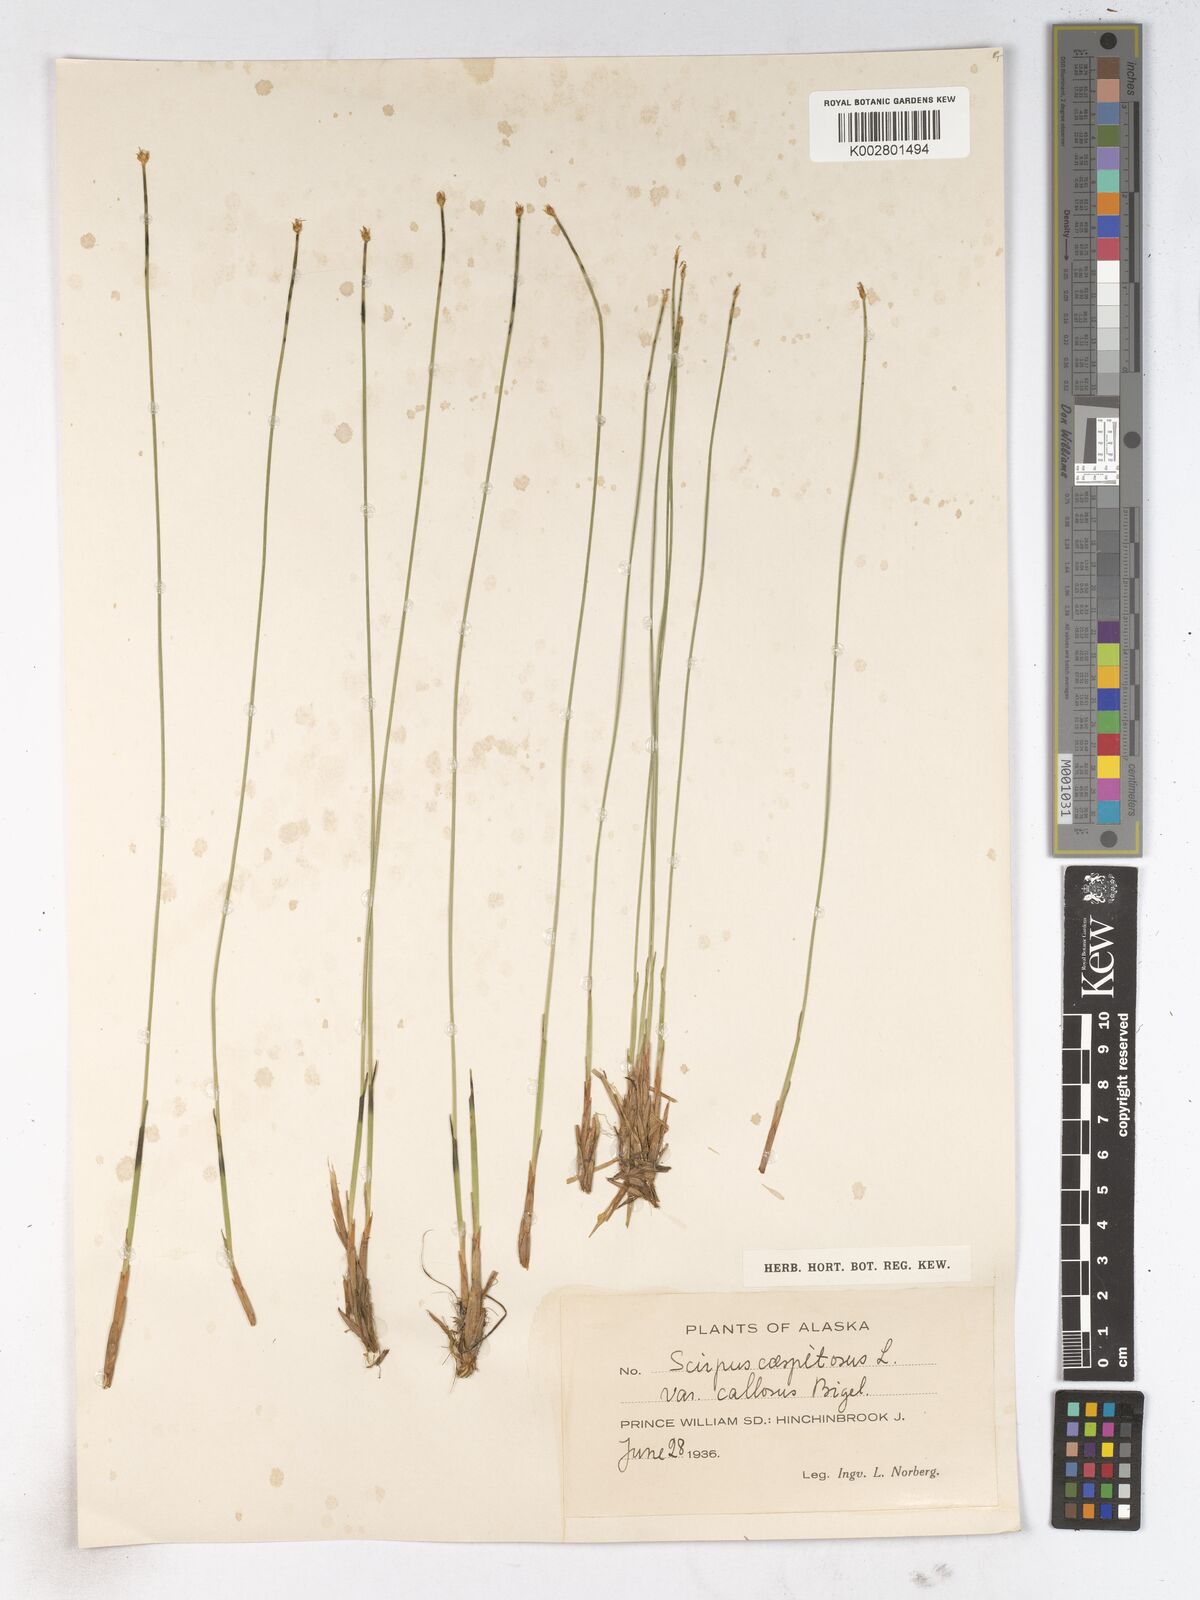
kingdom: Plantae
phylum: Tracheophyta
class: Liliopsida
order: Poales
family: Cyperaceae
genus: Trichophorum
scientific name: Trichophorum cespitosum
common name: Cespitose bulrush
